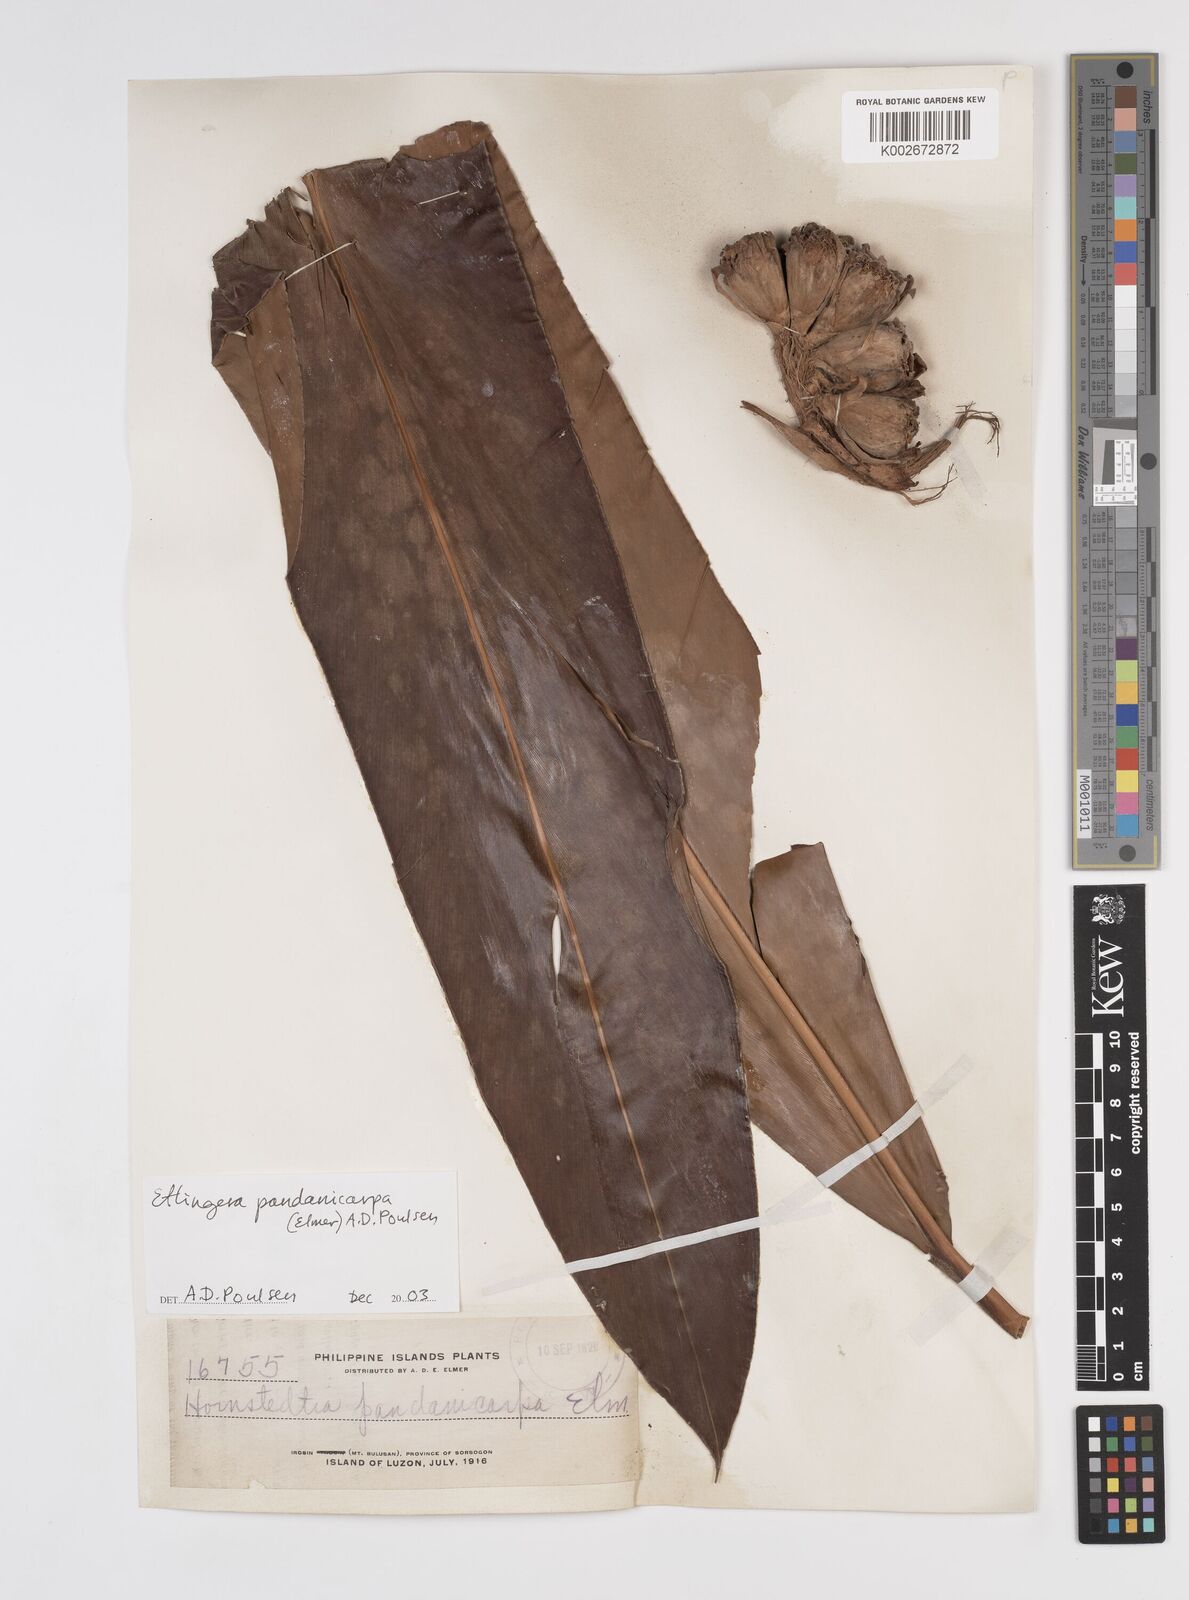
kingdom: Plantae
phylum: Tracheophyta
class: Liliopsida
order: Zingiberales
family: Zingiberaceae
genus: Etlingera
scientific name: Etlingera fimbriobracteata
